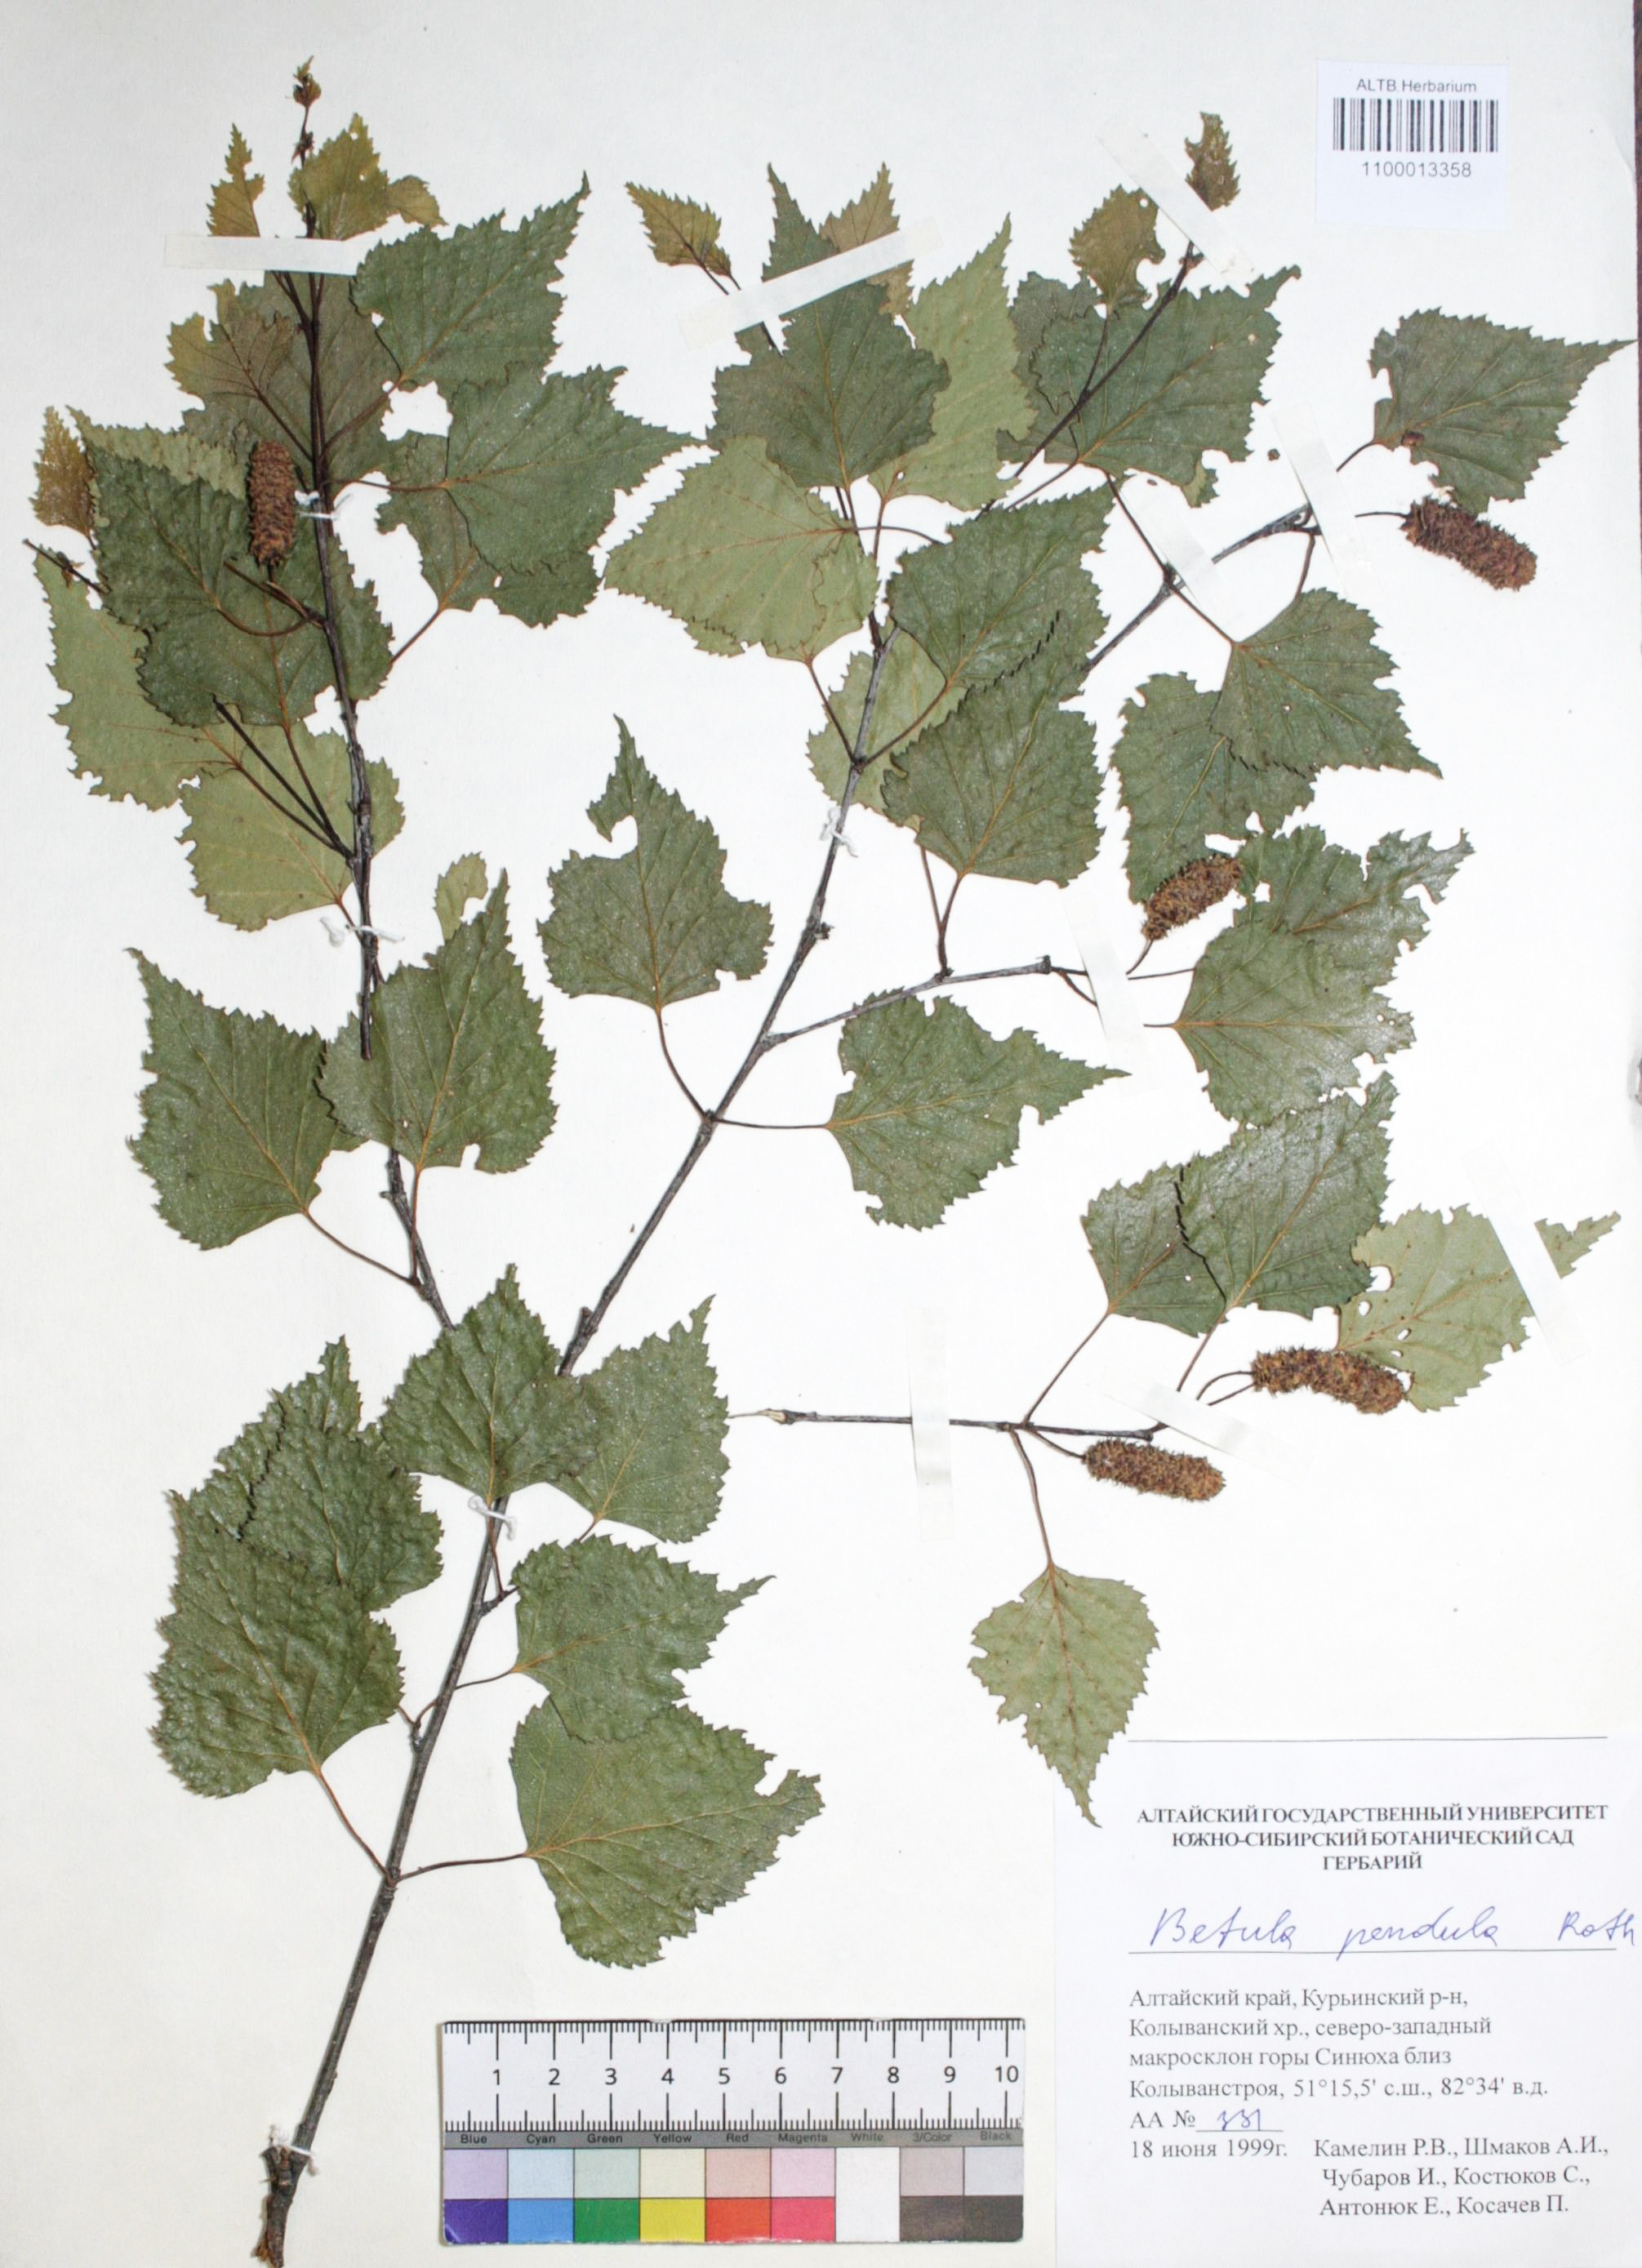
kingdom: Plantae
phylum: Tracheophyta
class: Magnoliopsida
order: Fagales
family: Betulaceae
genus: Betula
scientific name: Betula pendula
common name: Silver birch
